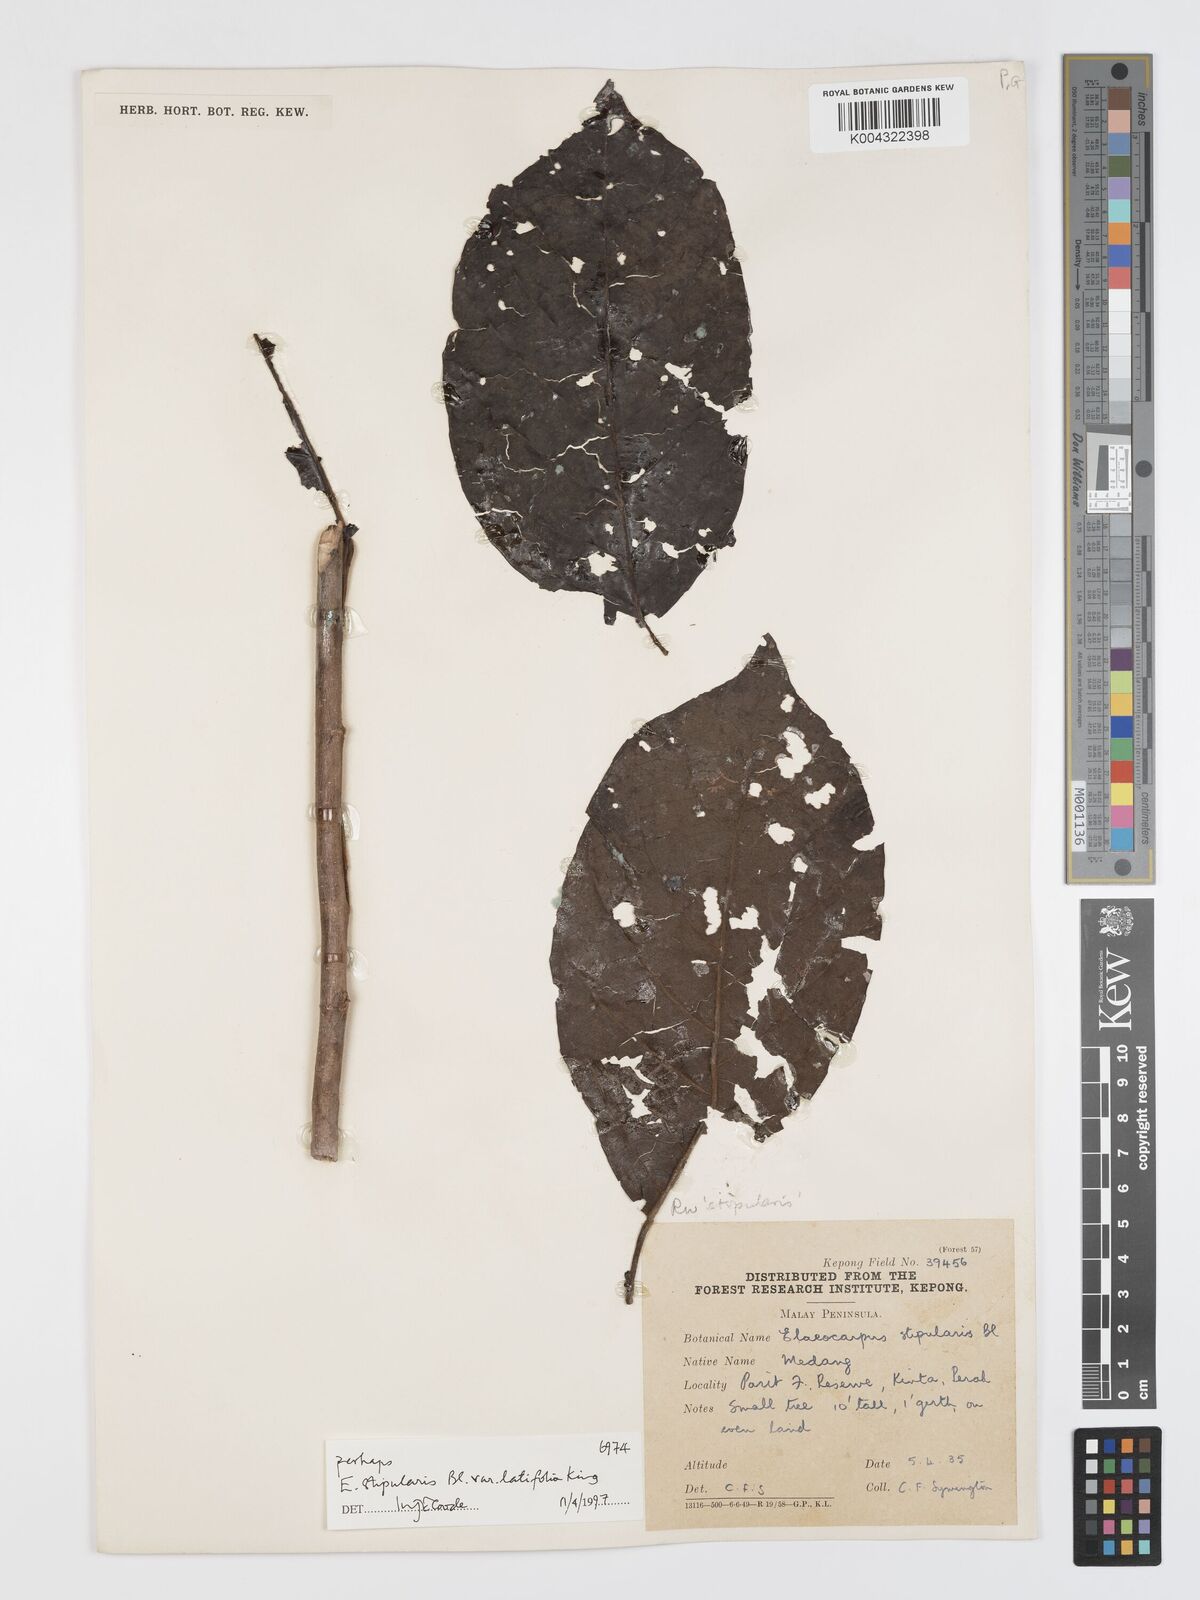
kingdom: Plantae
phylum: Tracheophyta
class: Magnoliopsida
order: Oxalidales
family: Elaeocarpaceae
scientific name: Elaeocarpaceae
